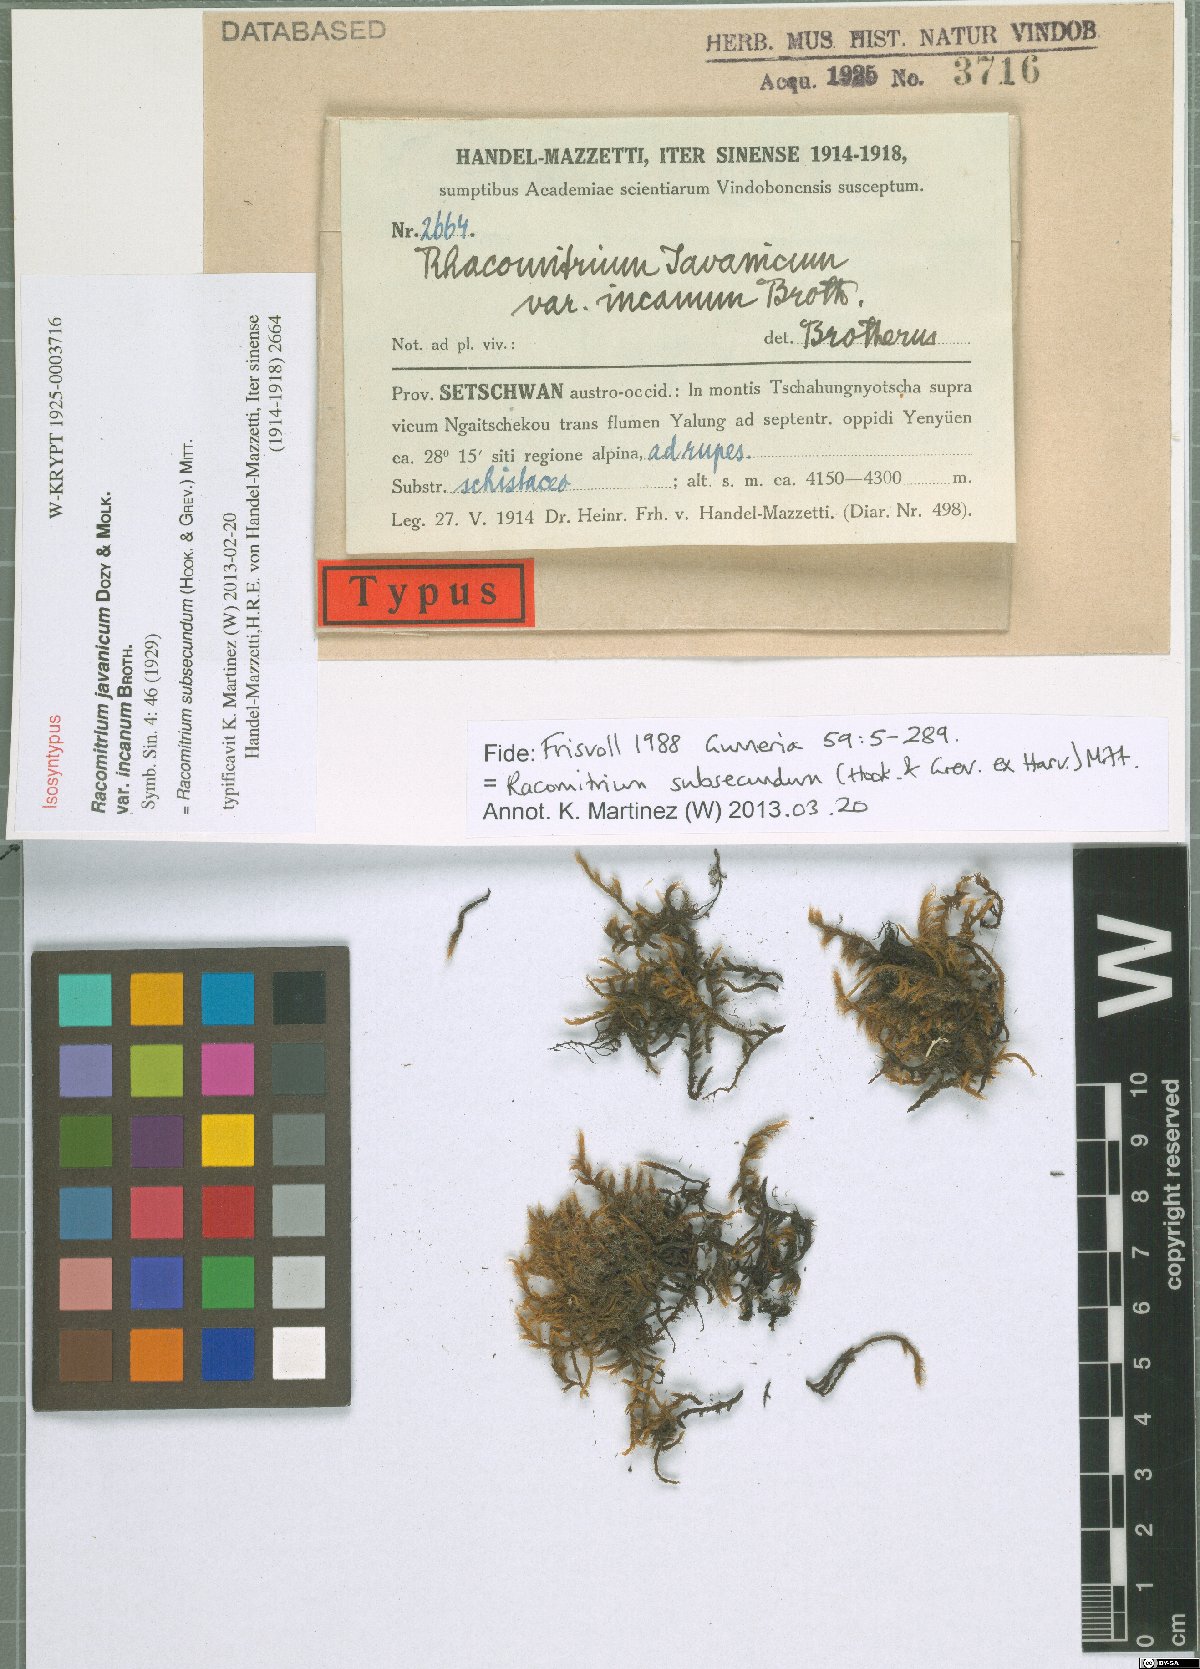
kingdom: Plantae
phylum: Bryophyta
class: Bryopsida
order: Grimmiales
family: Grimmiaceae
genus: Bucklandiella
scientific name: Bucklandiella subsecunda
